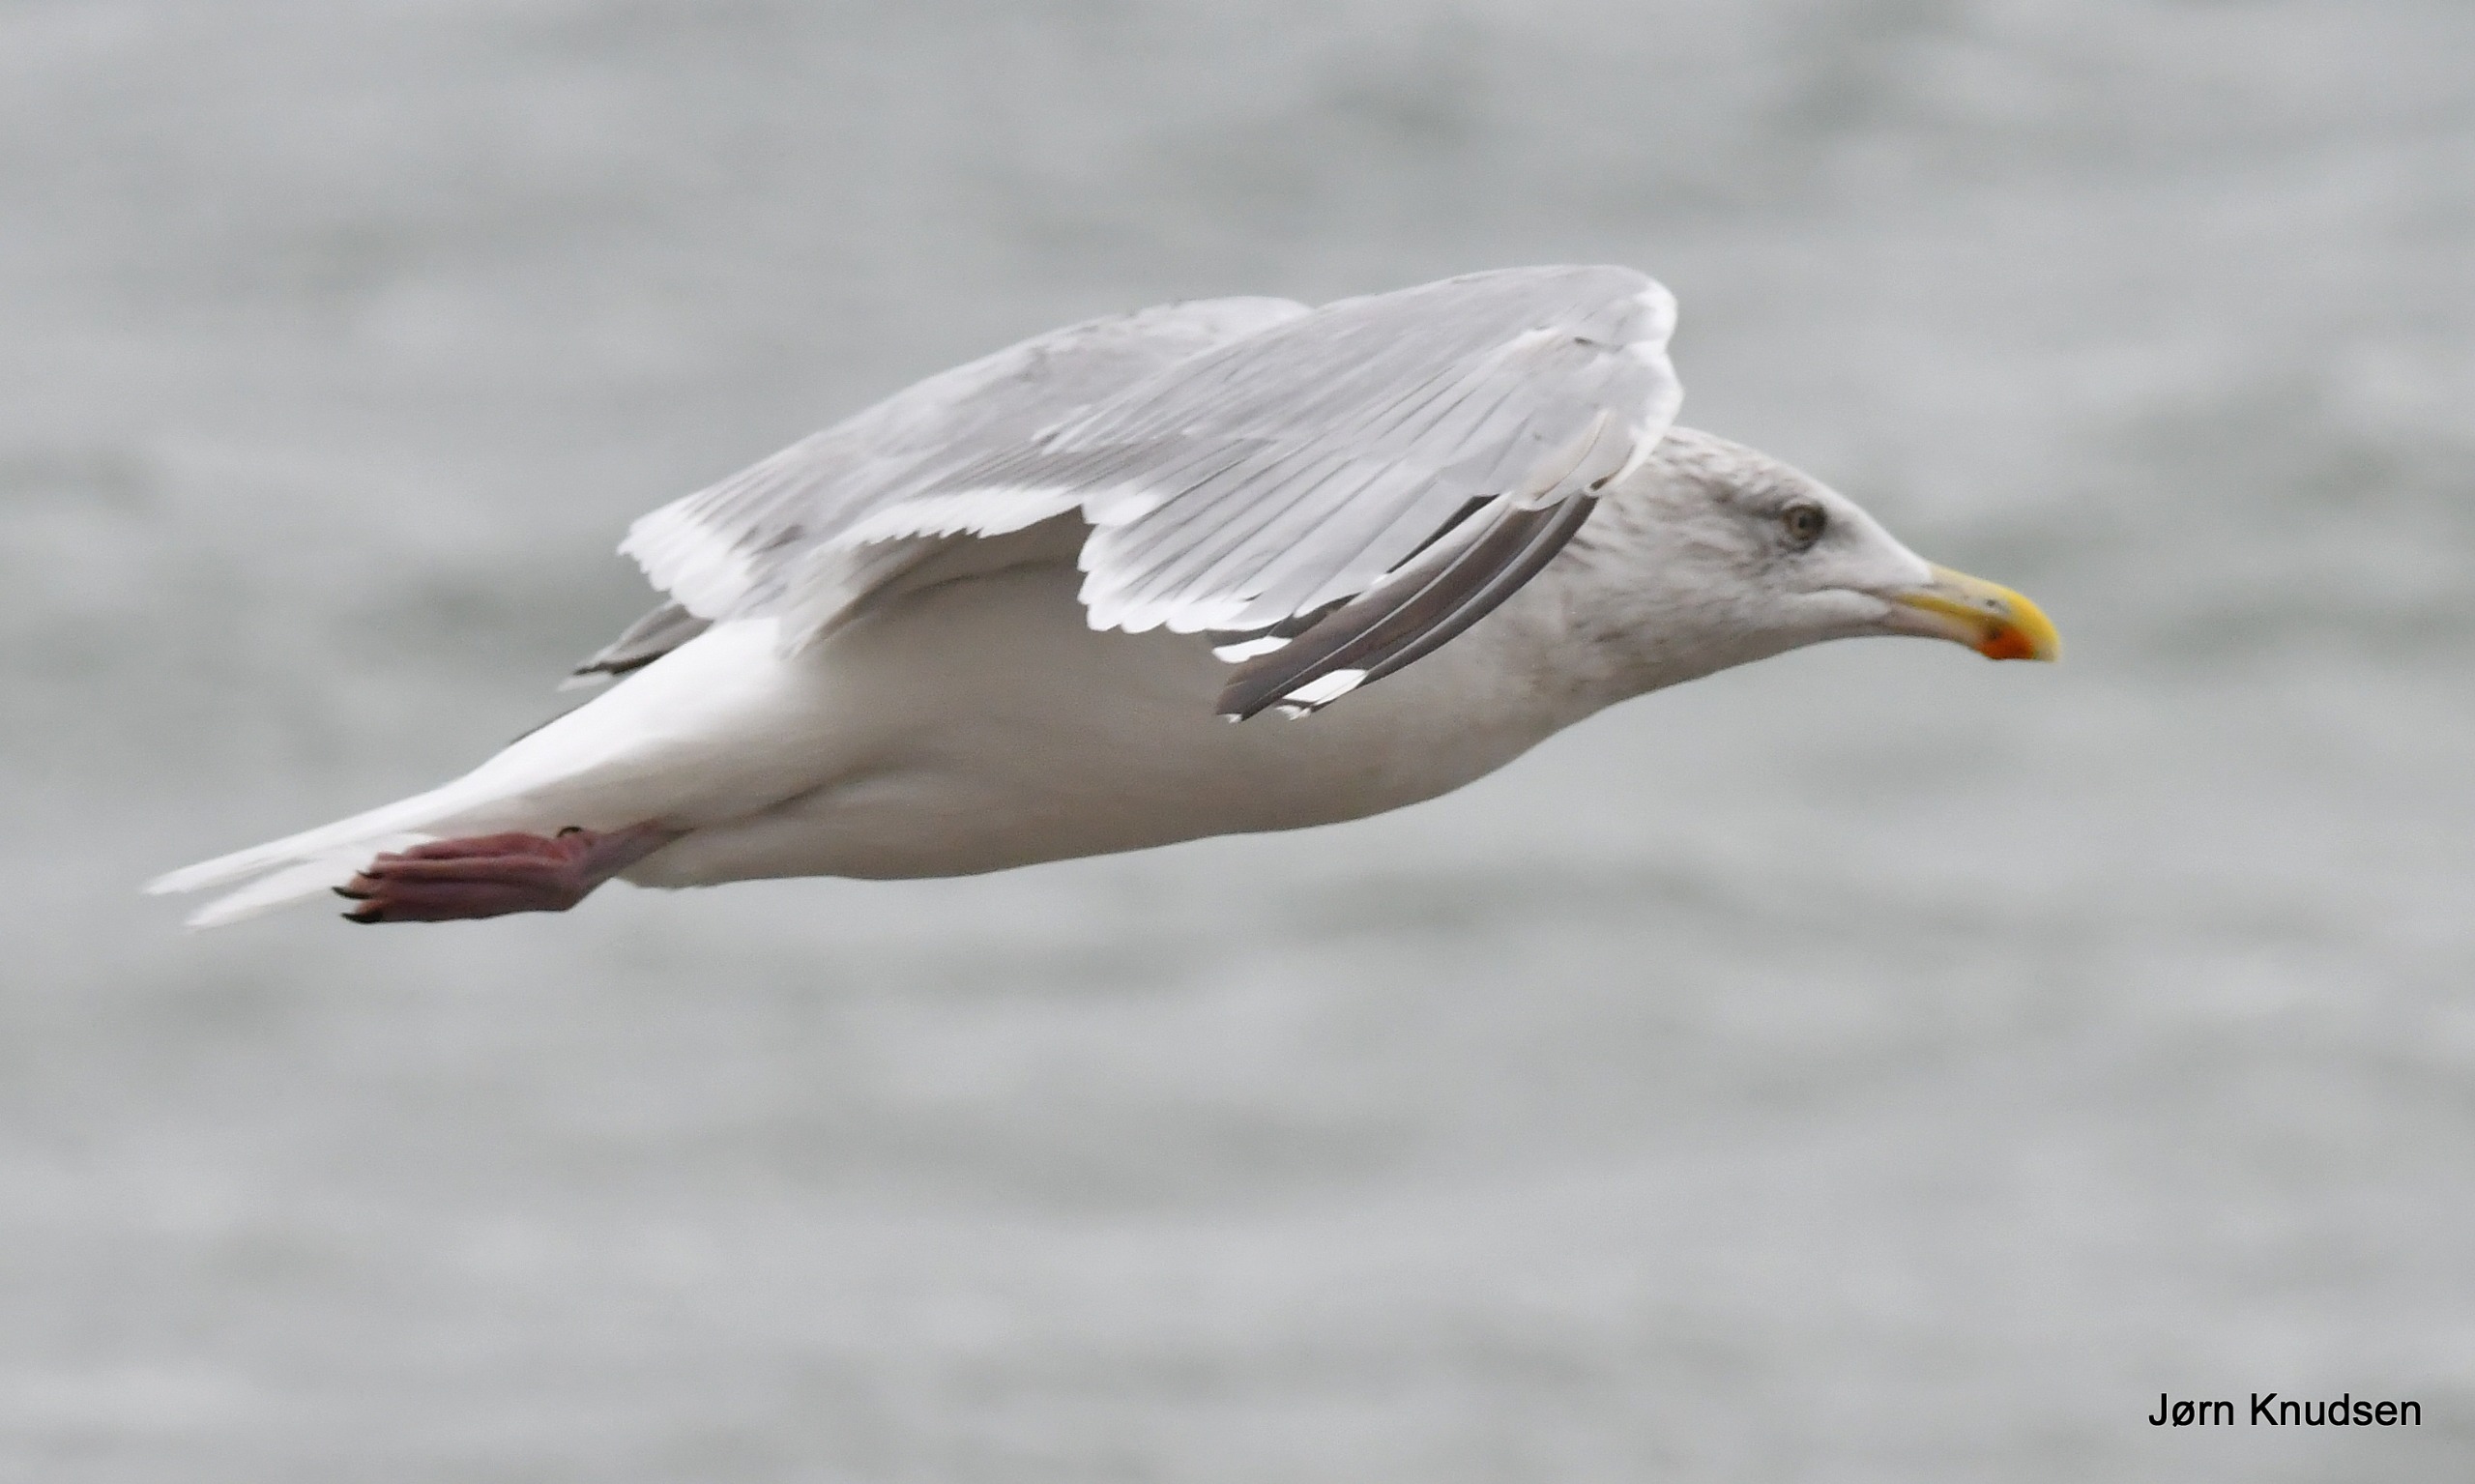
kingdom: Animalia
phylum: Chordata
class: Aves
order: Charadriiformes
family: Laridae
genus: Larus
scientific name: Larus argentatus
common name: Sølvmåge
